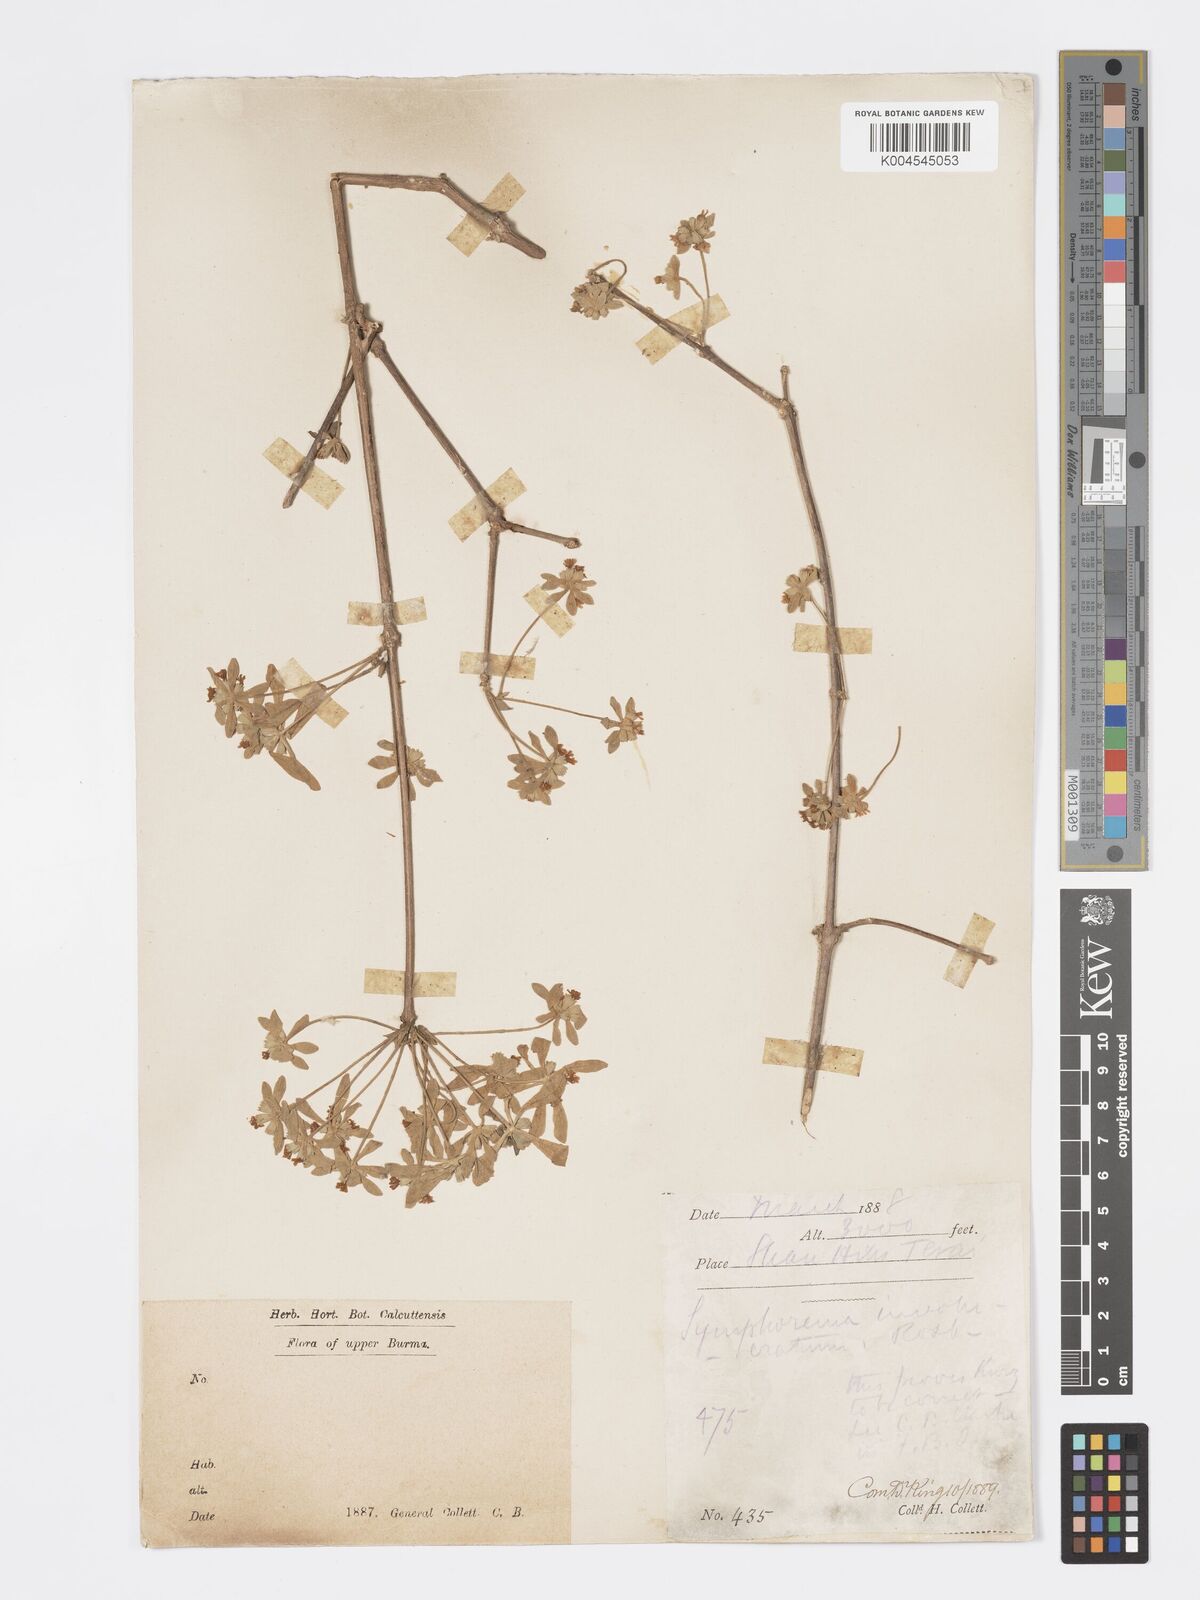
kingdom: Plantae
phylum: Tracheophyta
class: Magnoliopsida
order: Lamiales
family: Lamiaceae
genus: Symphorema
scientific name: Symphorema involucratum
